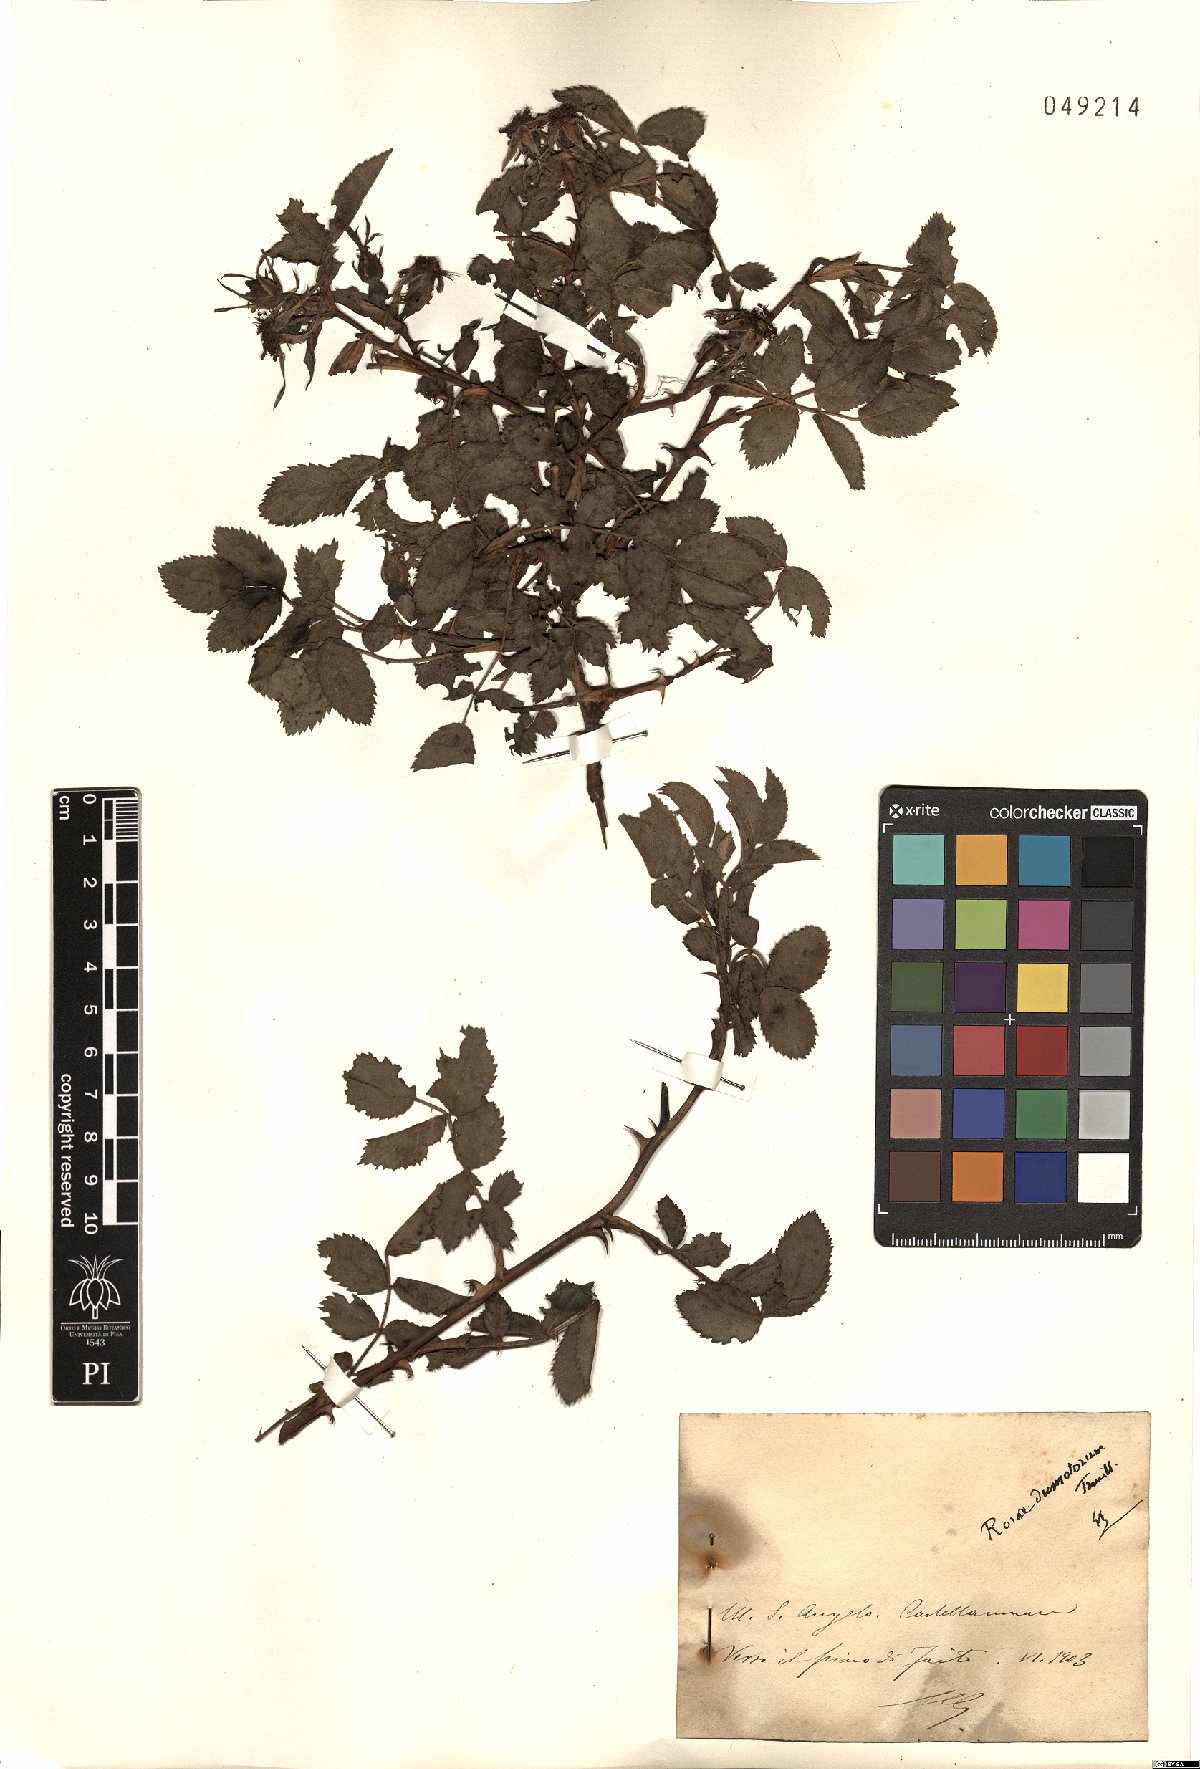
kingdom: Plantae
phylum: Tracheophyta
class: Magnoliopsida
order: Rosales
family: Rosaceae
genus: Rosa
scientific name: Rosa corymbifera
